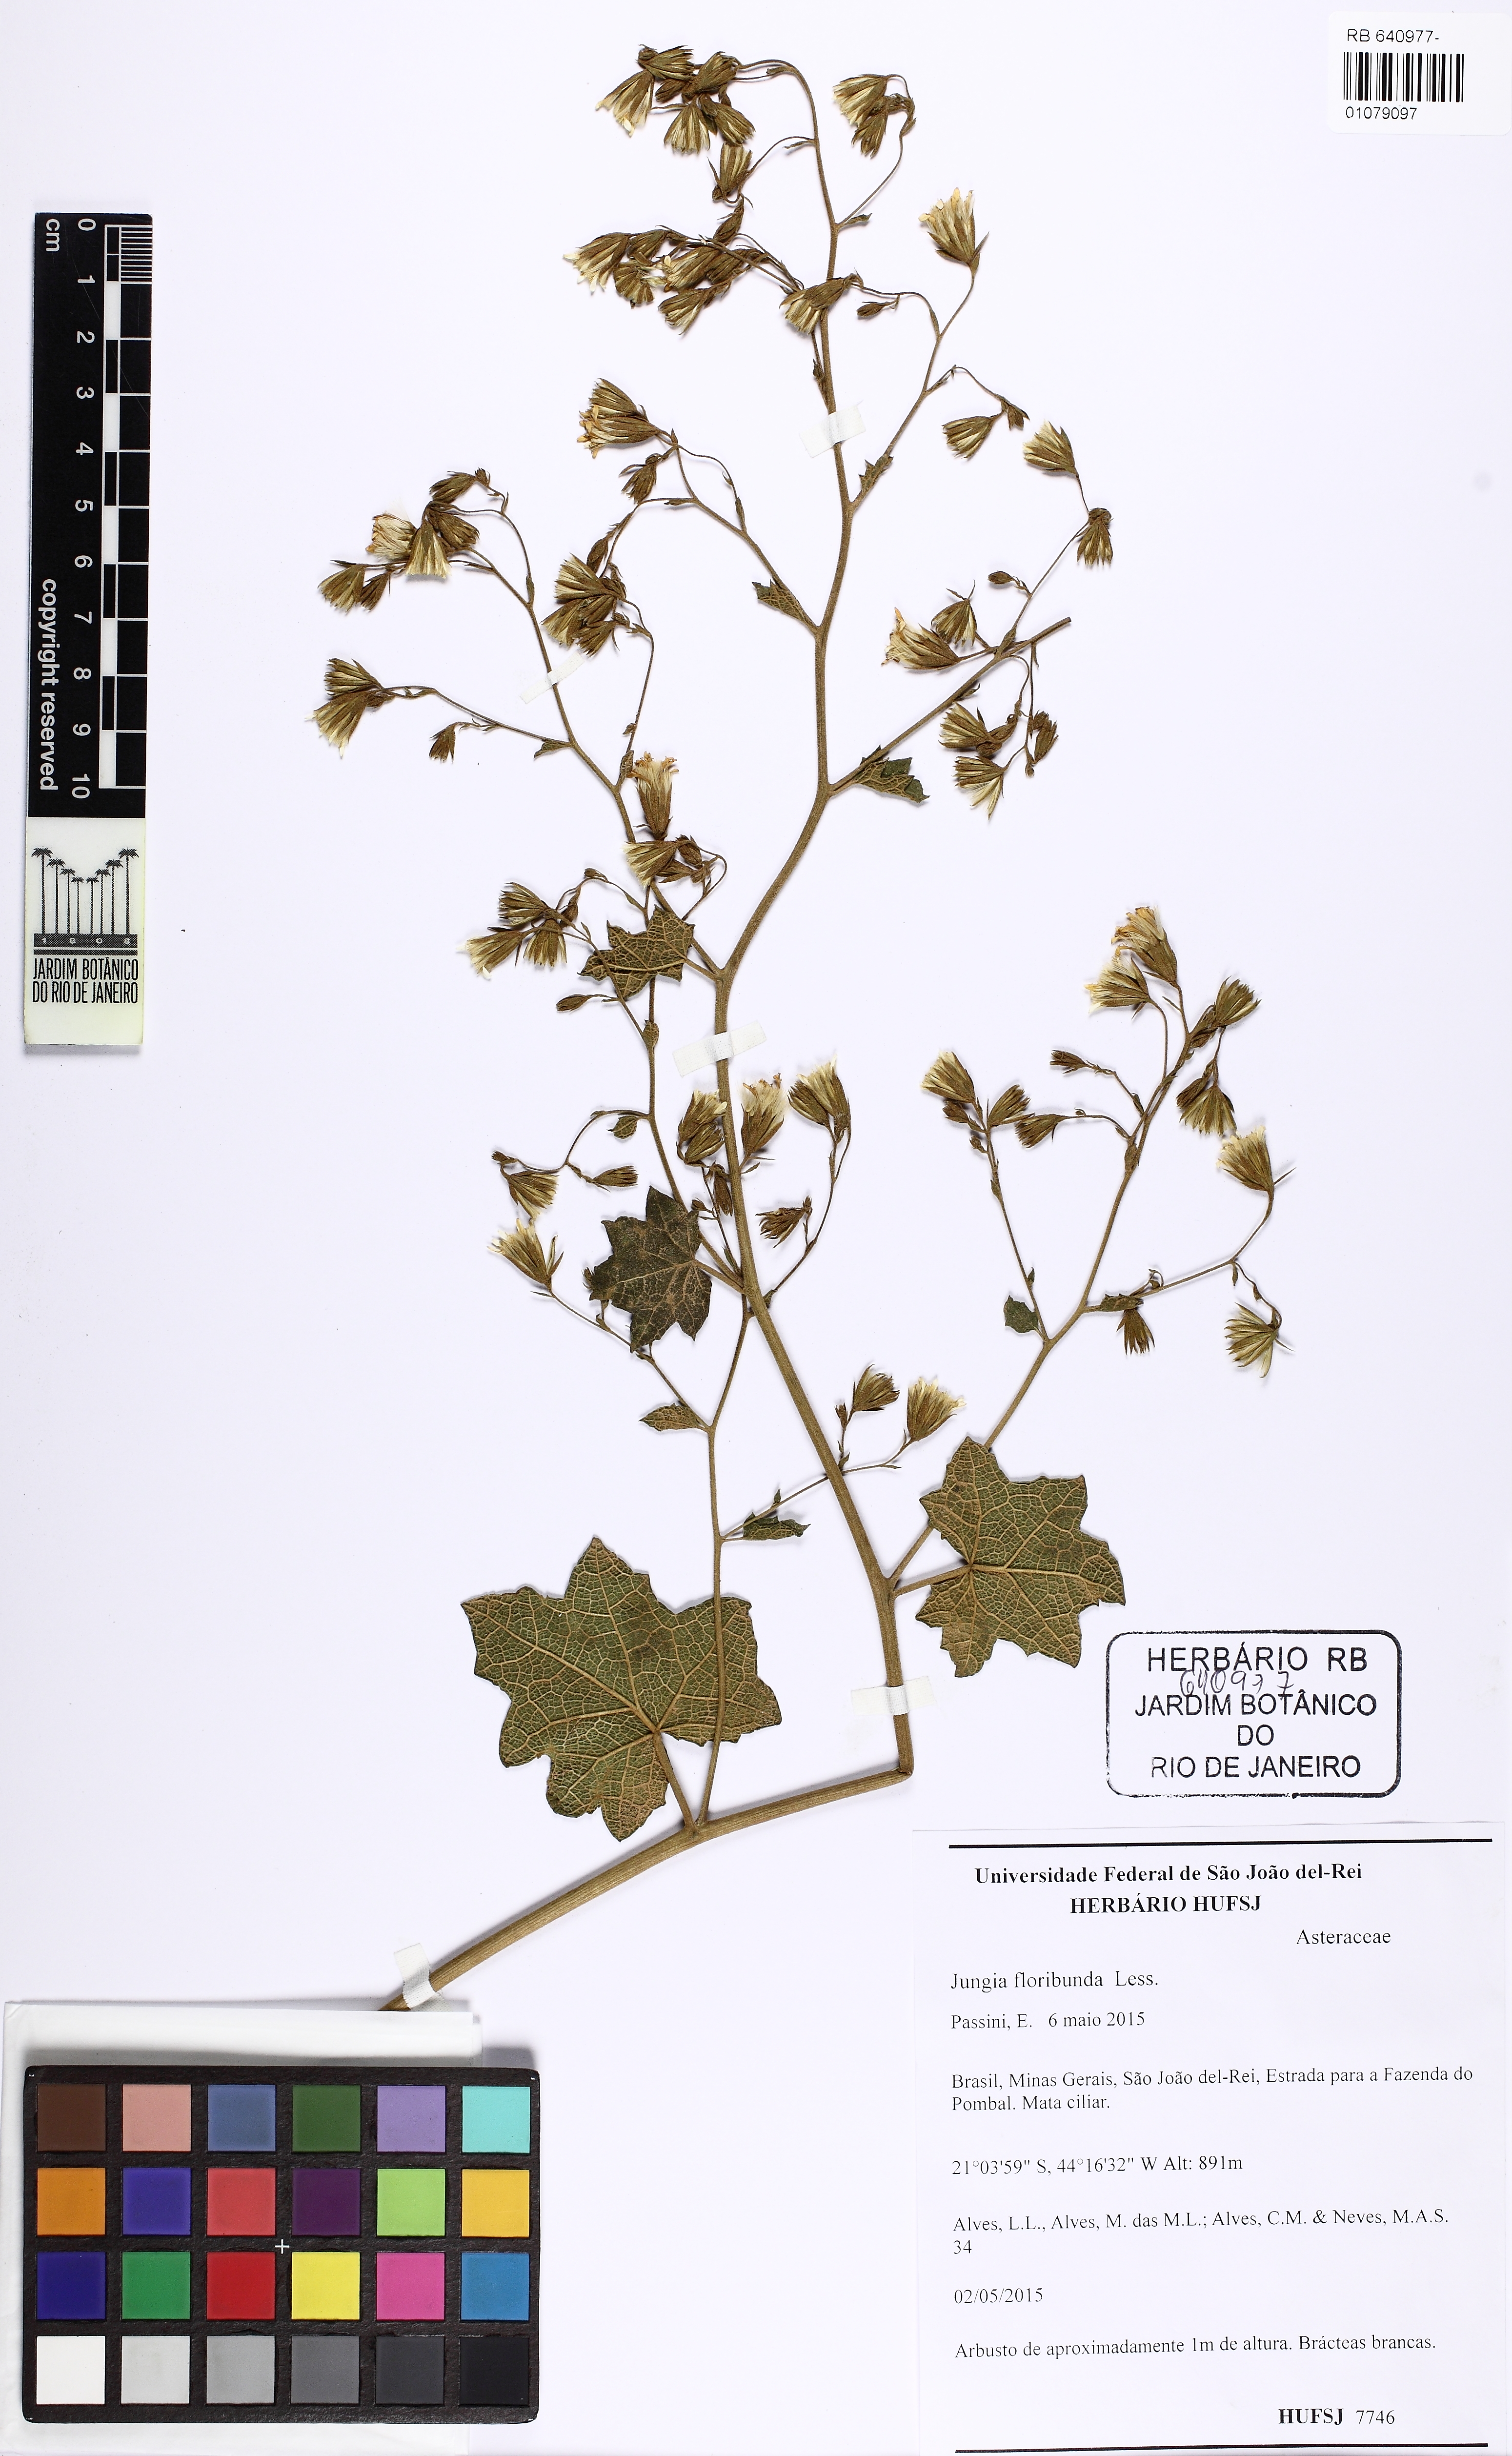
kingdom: Plantae
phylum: Tracheophyta
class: Magnoliopsida
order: Asterales
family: Asteraceae
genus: Jungia
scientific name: Jungia floribunda
